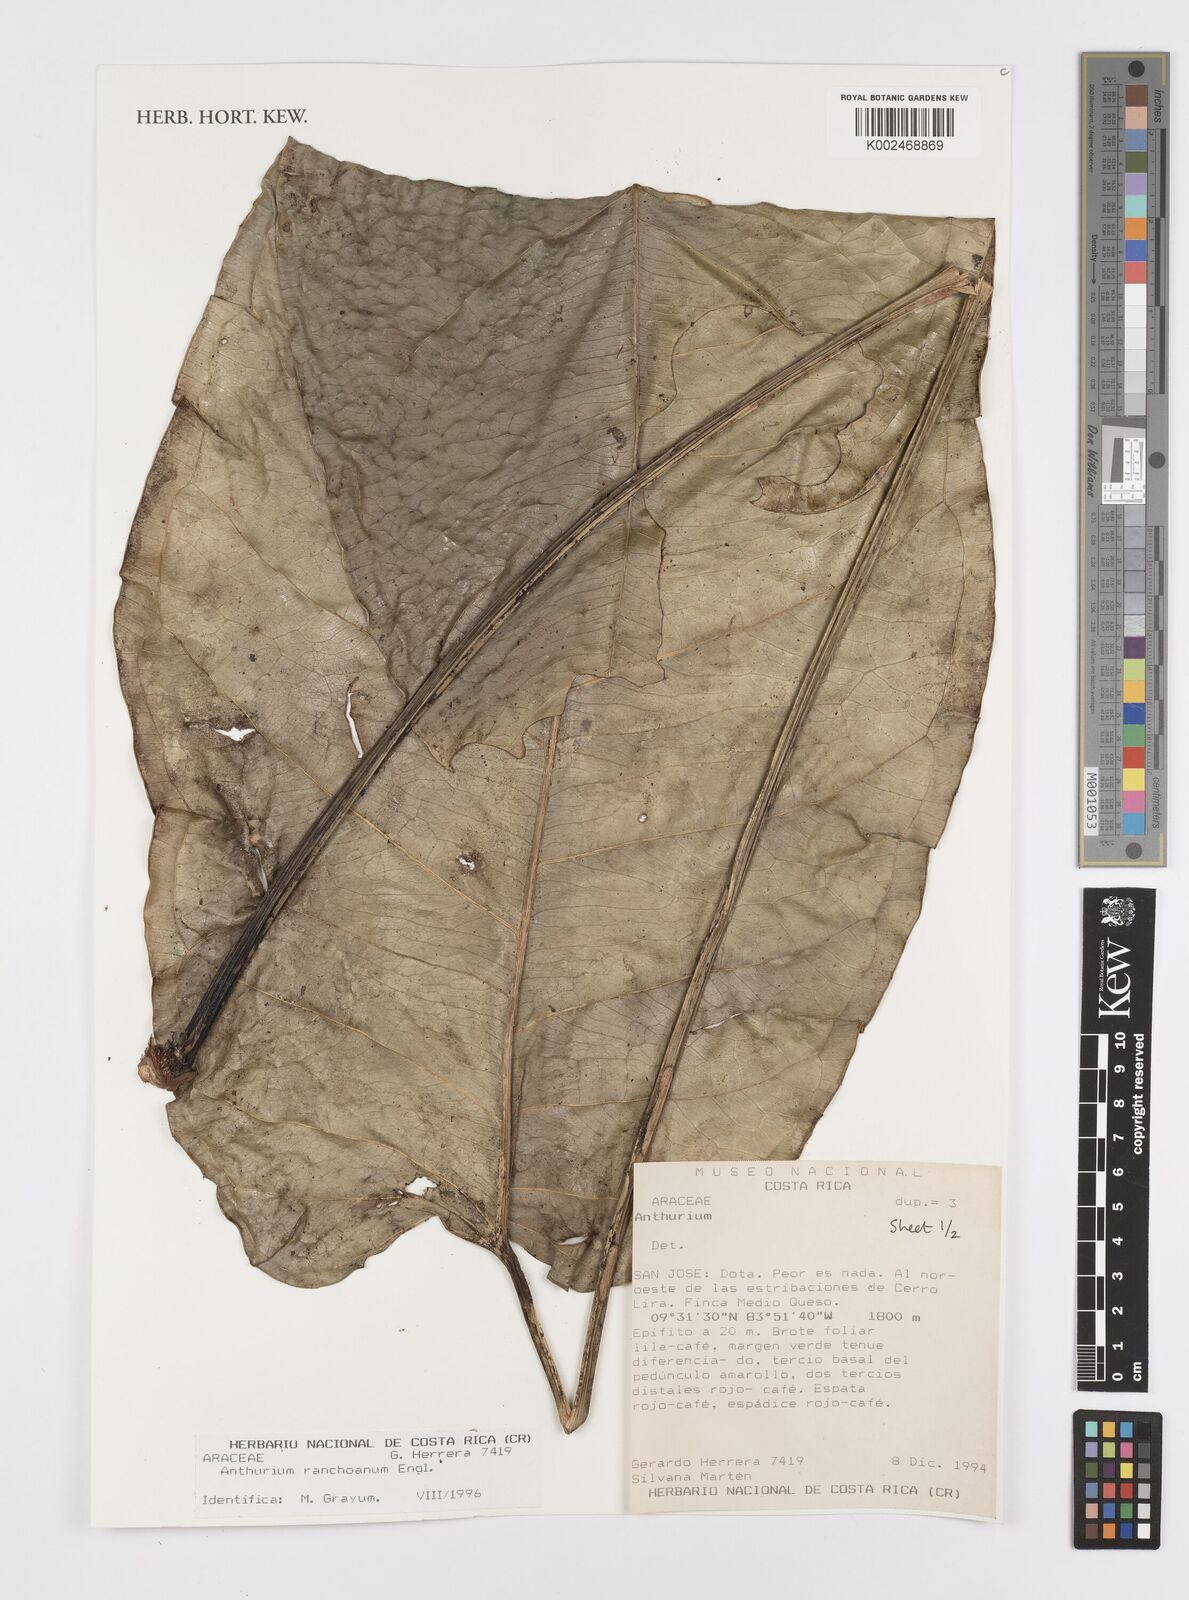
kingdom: Plantae
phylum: Tracheophyta
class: Liliopsida
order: Alismatales
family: Araceae
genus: Anthurium
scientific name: Anthurium ranchoanum
